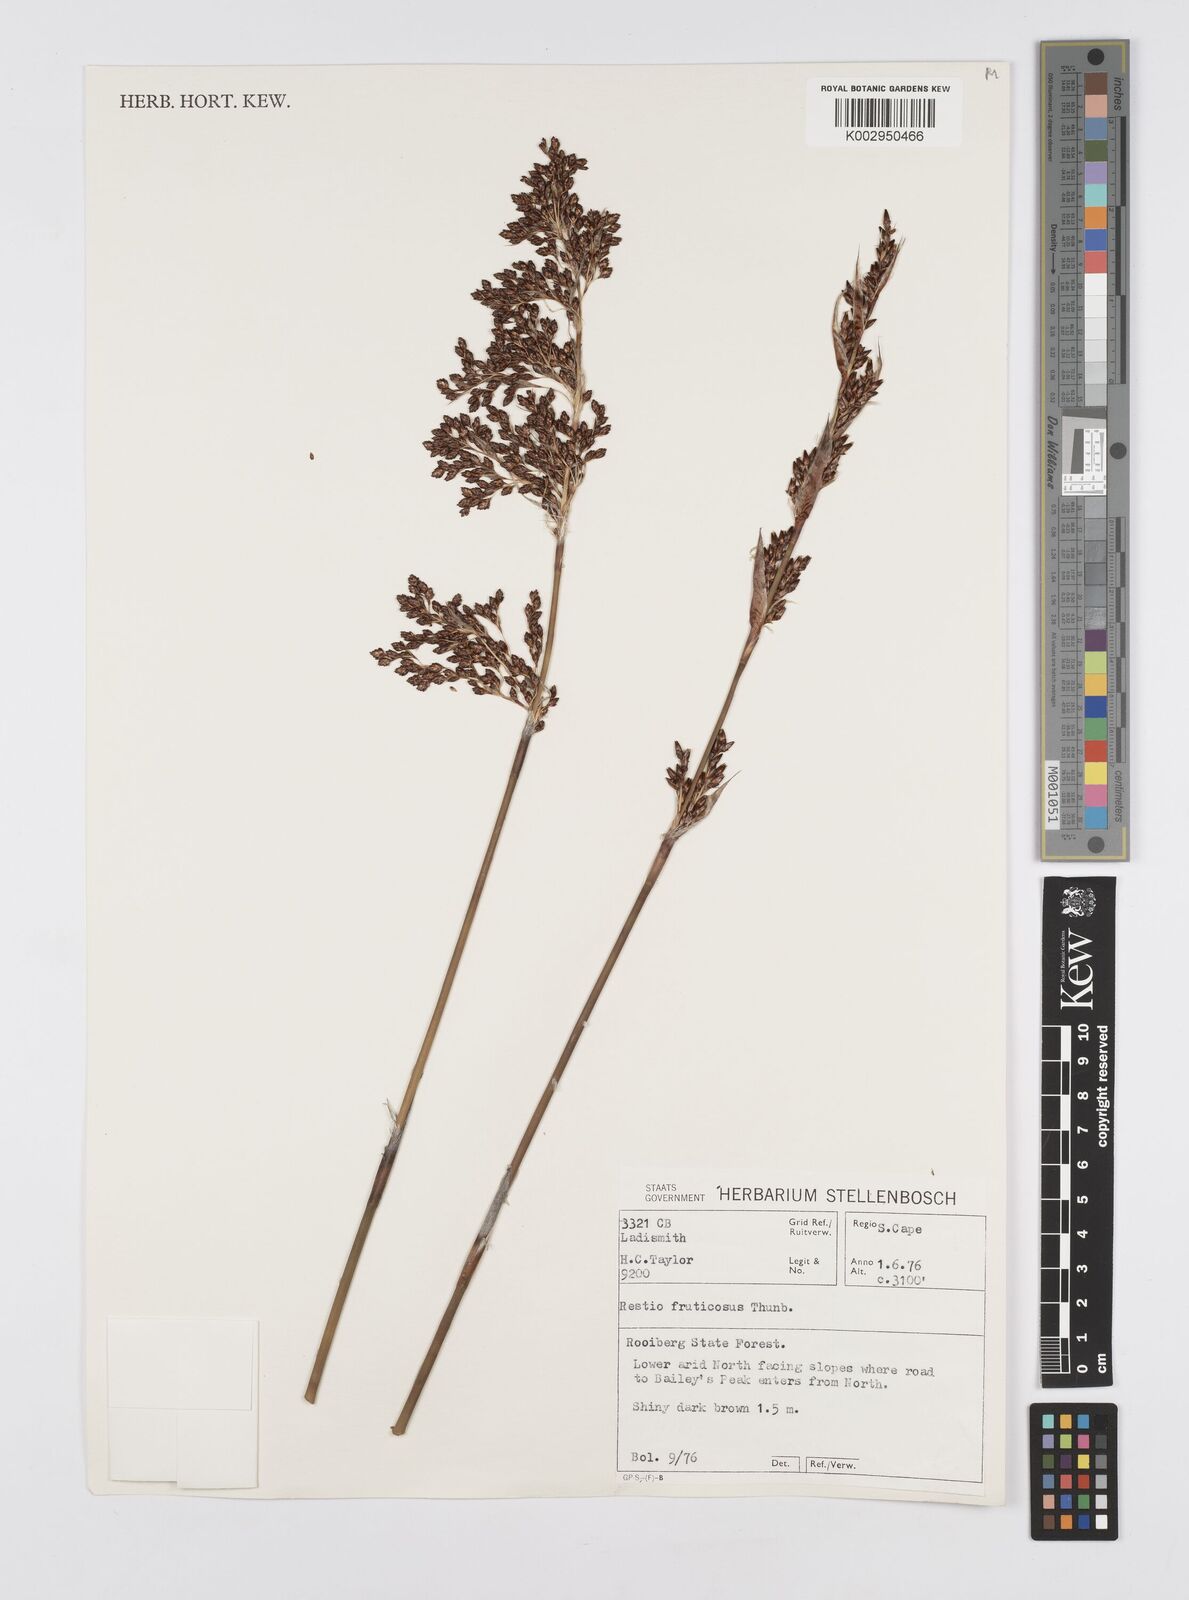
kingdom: Plantae
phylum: Tracheophyta
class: Liliopsida
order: Poales
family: Restionaceae
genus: Rhodocoma
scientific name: Rhodocoma fruticosa
